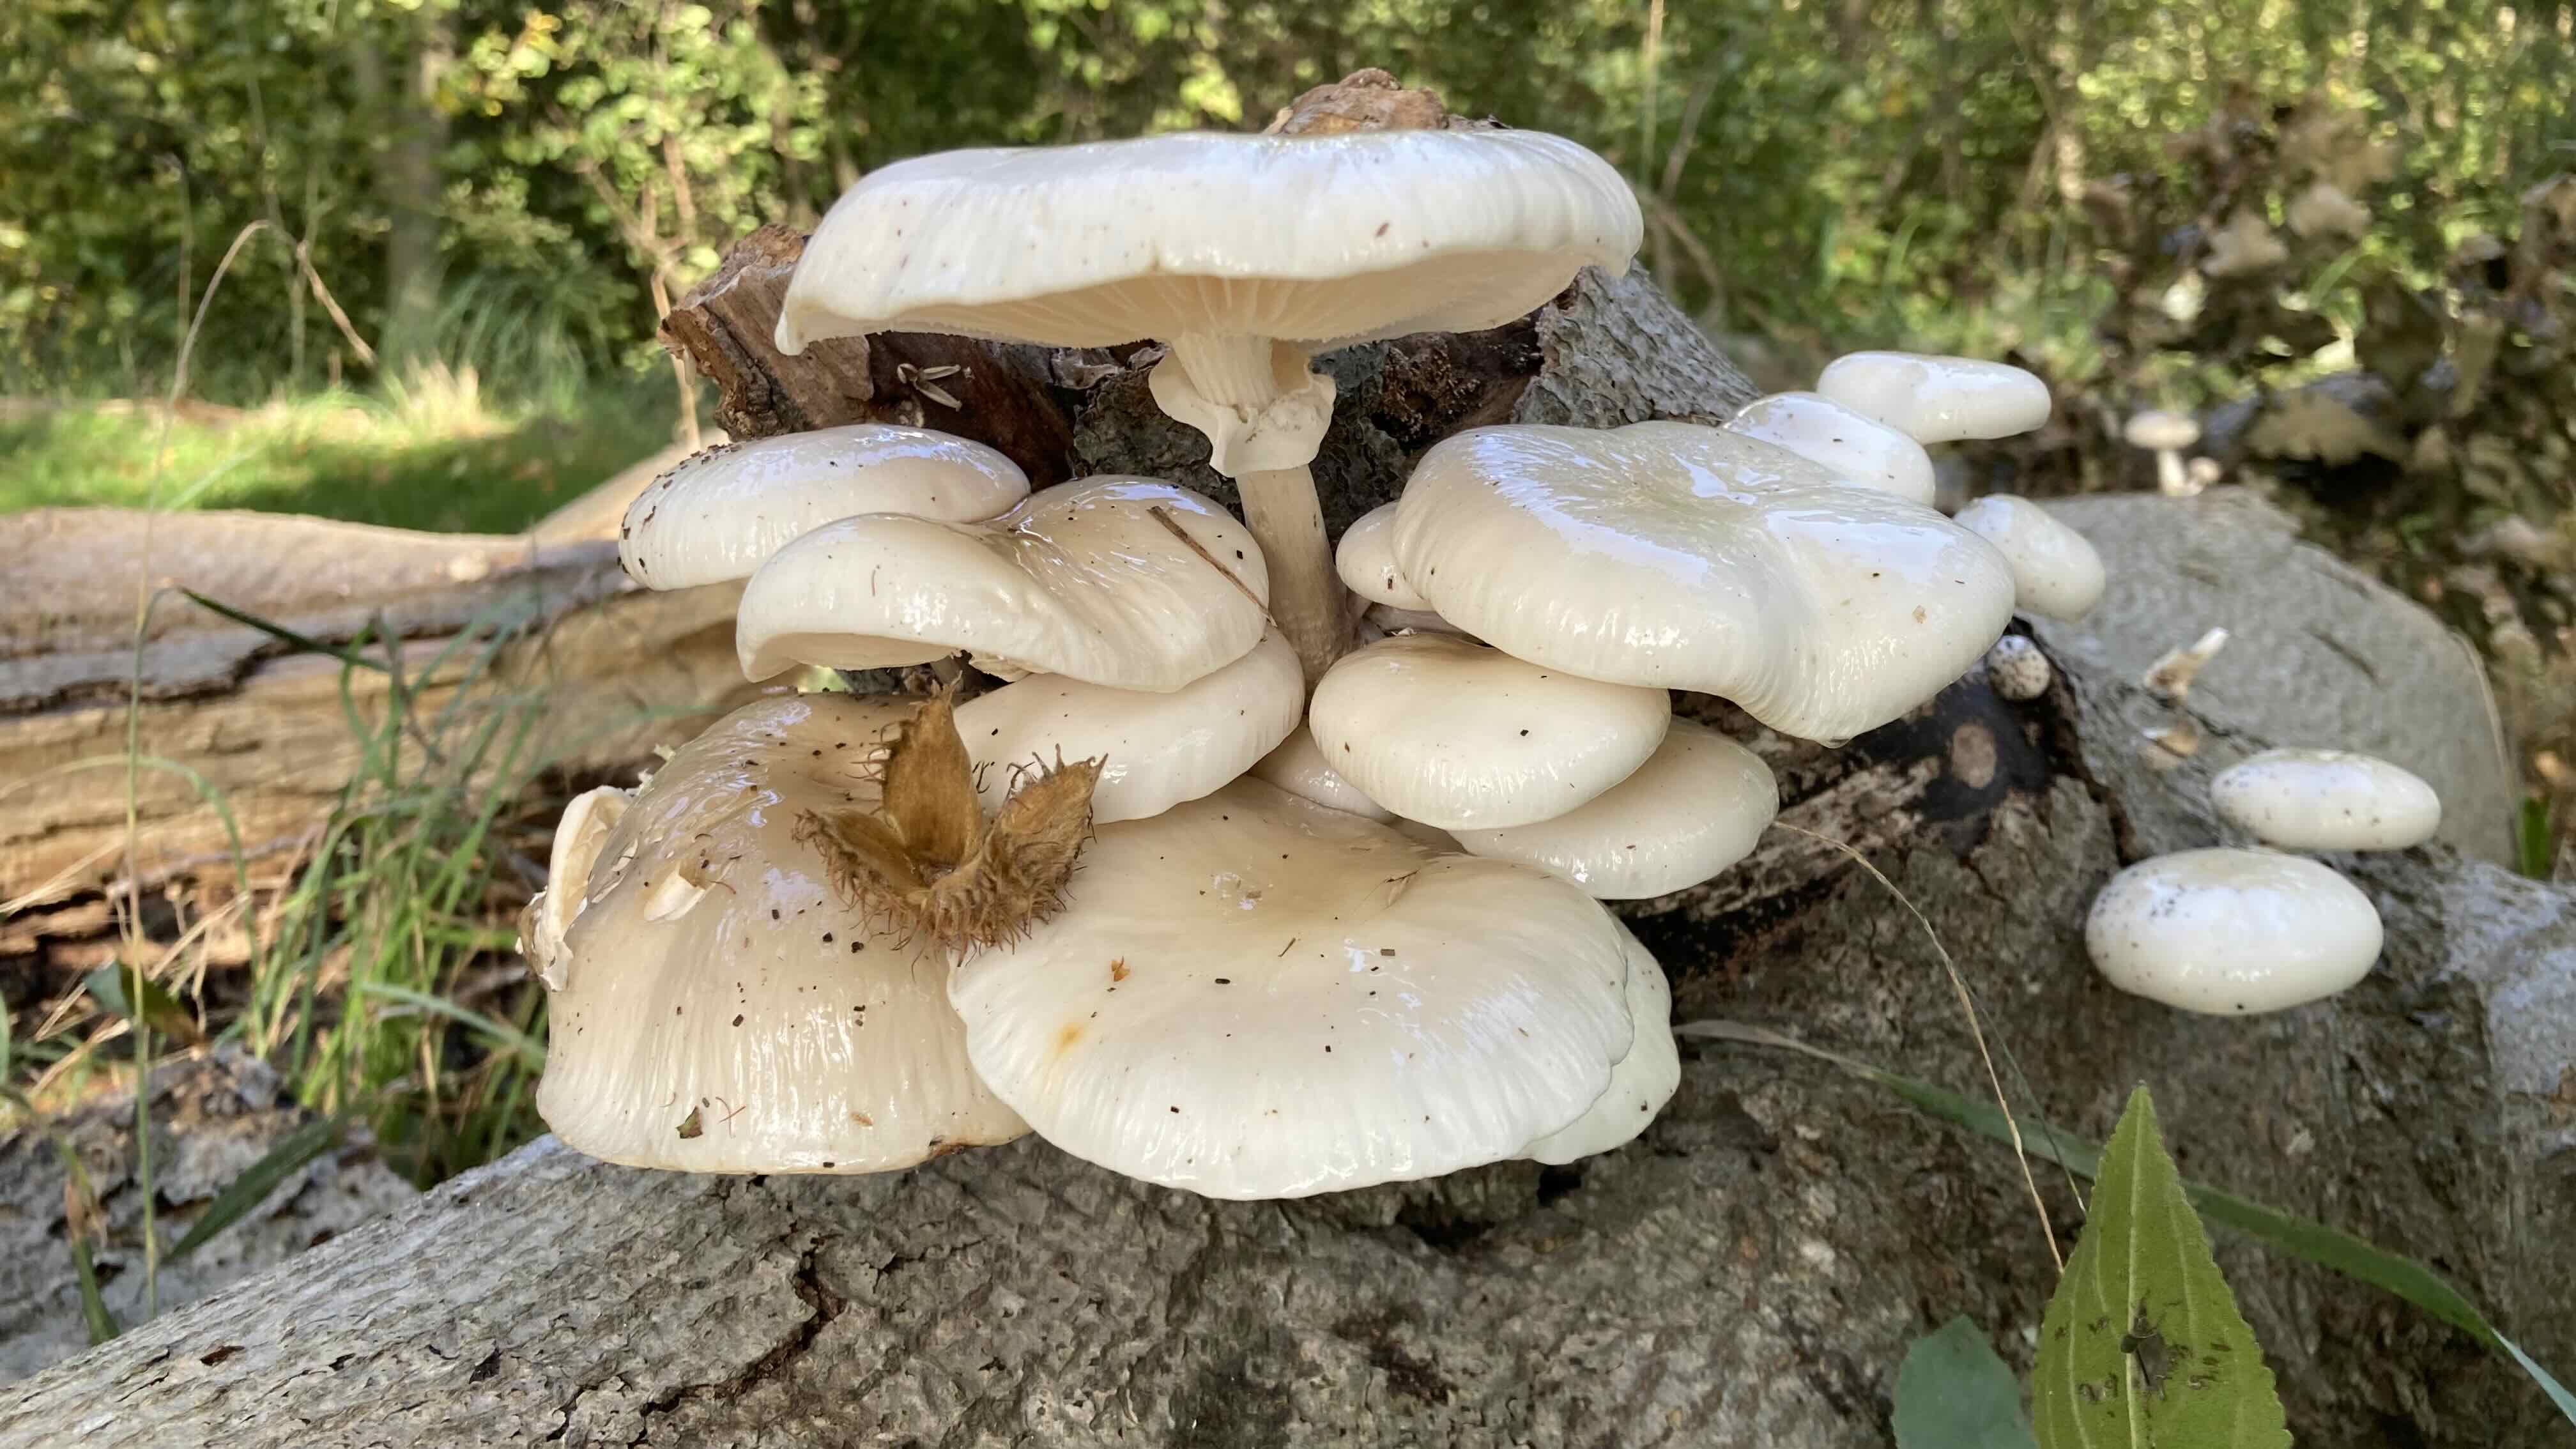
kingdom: Fungi
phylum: Basidiomycota
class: Agaricomycetes
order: Agaricales
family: Physalacriaceae
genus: Mucidula
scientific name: Mucidula mucida
